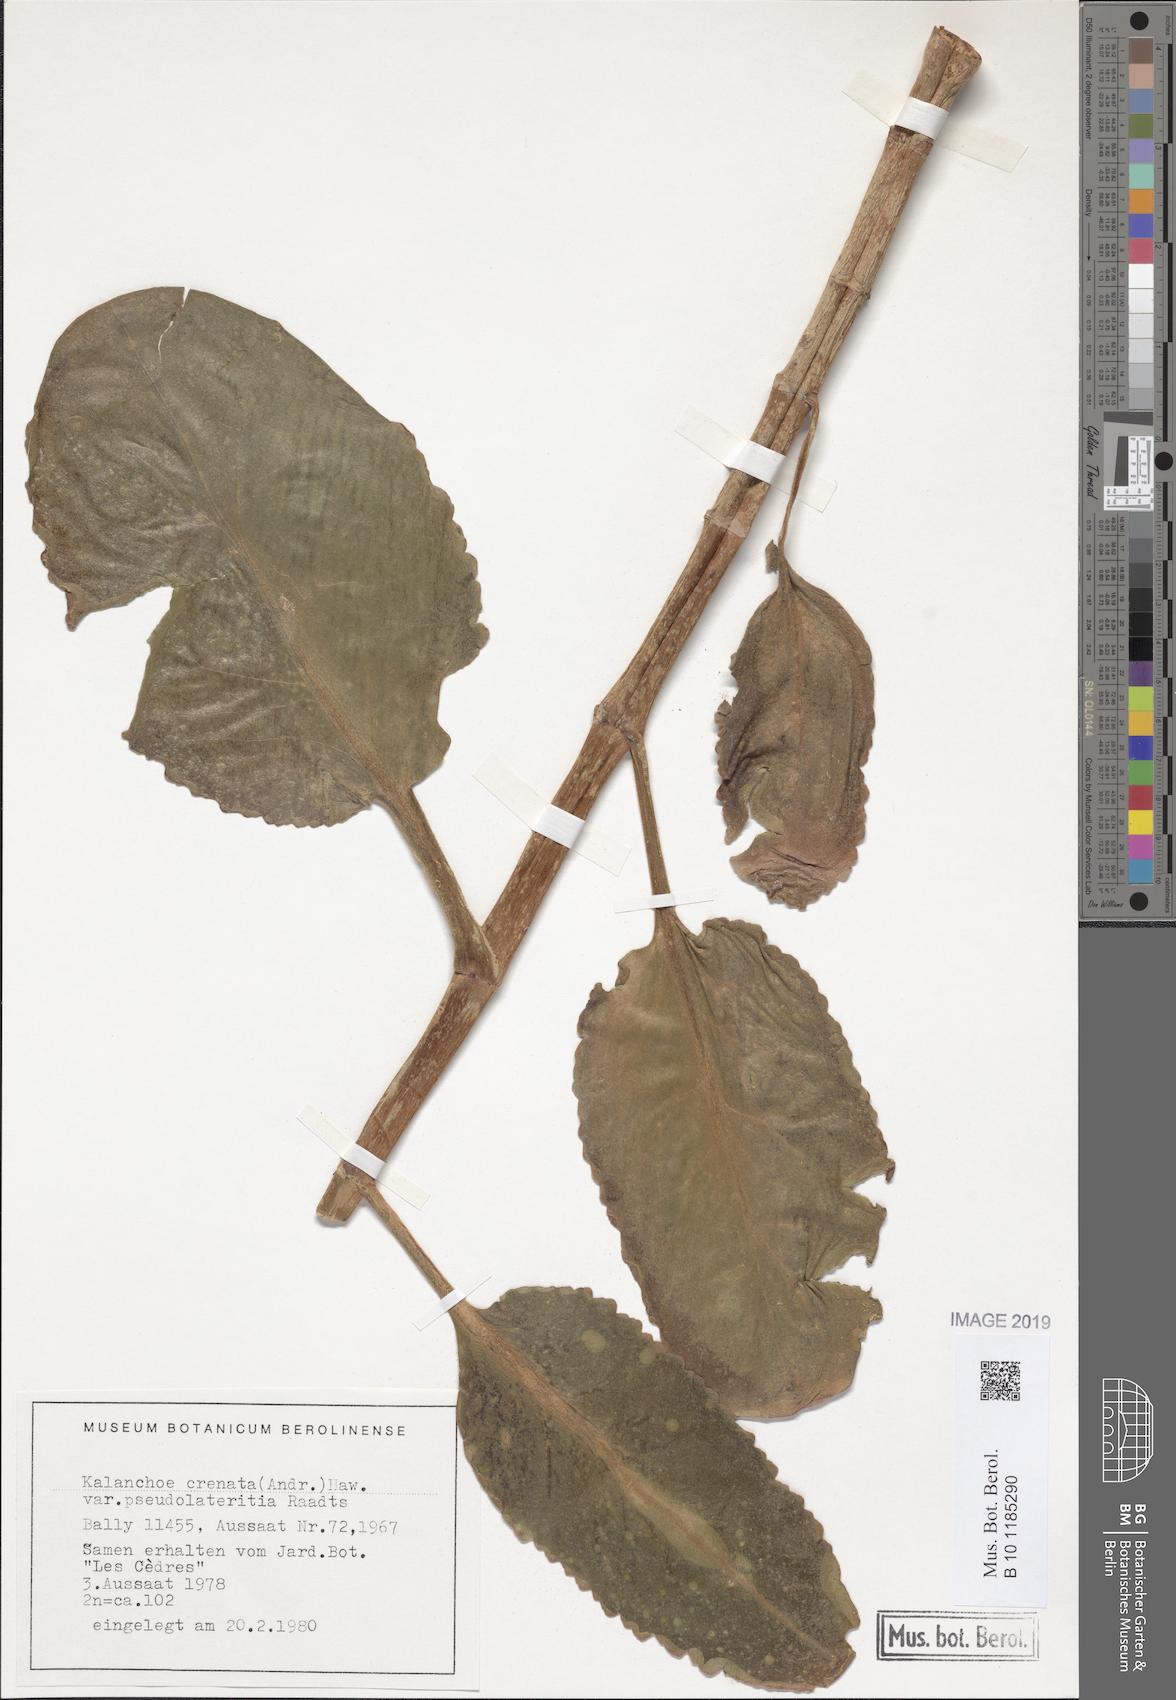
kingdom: Plantae
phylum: Tracheophyta
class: Magnoliopsida
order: Saxifragales
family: Crassulaceae
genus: Kalanchoe
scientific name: Kalanchoe lateritia
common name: Kalanchoe
